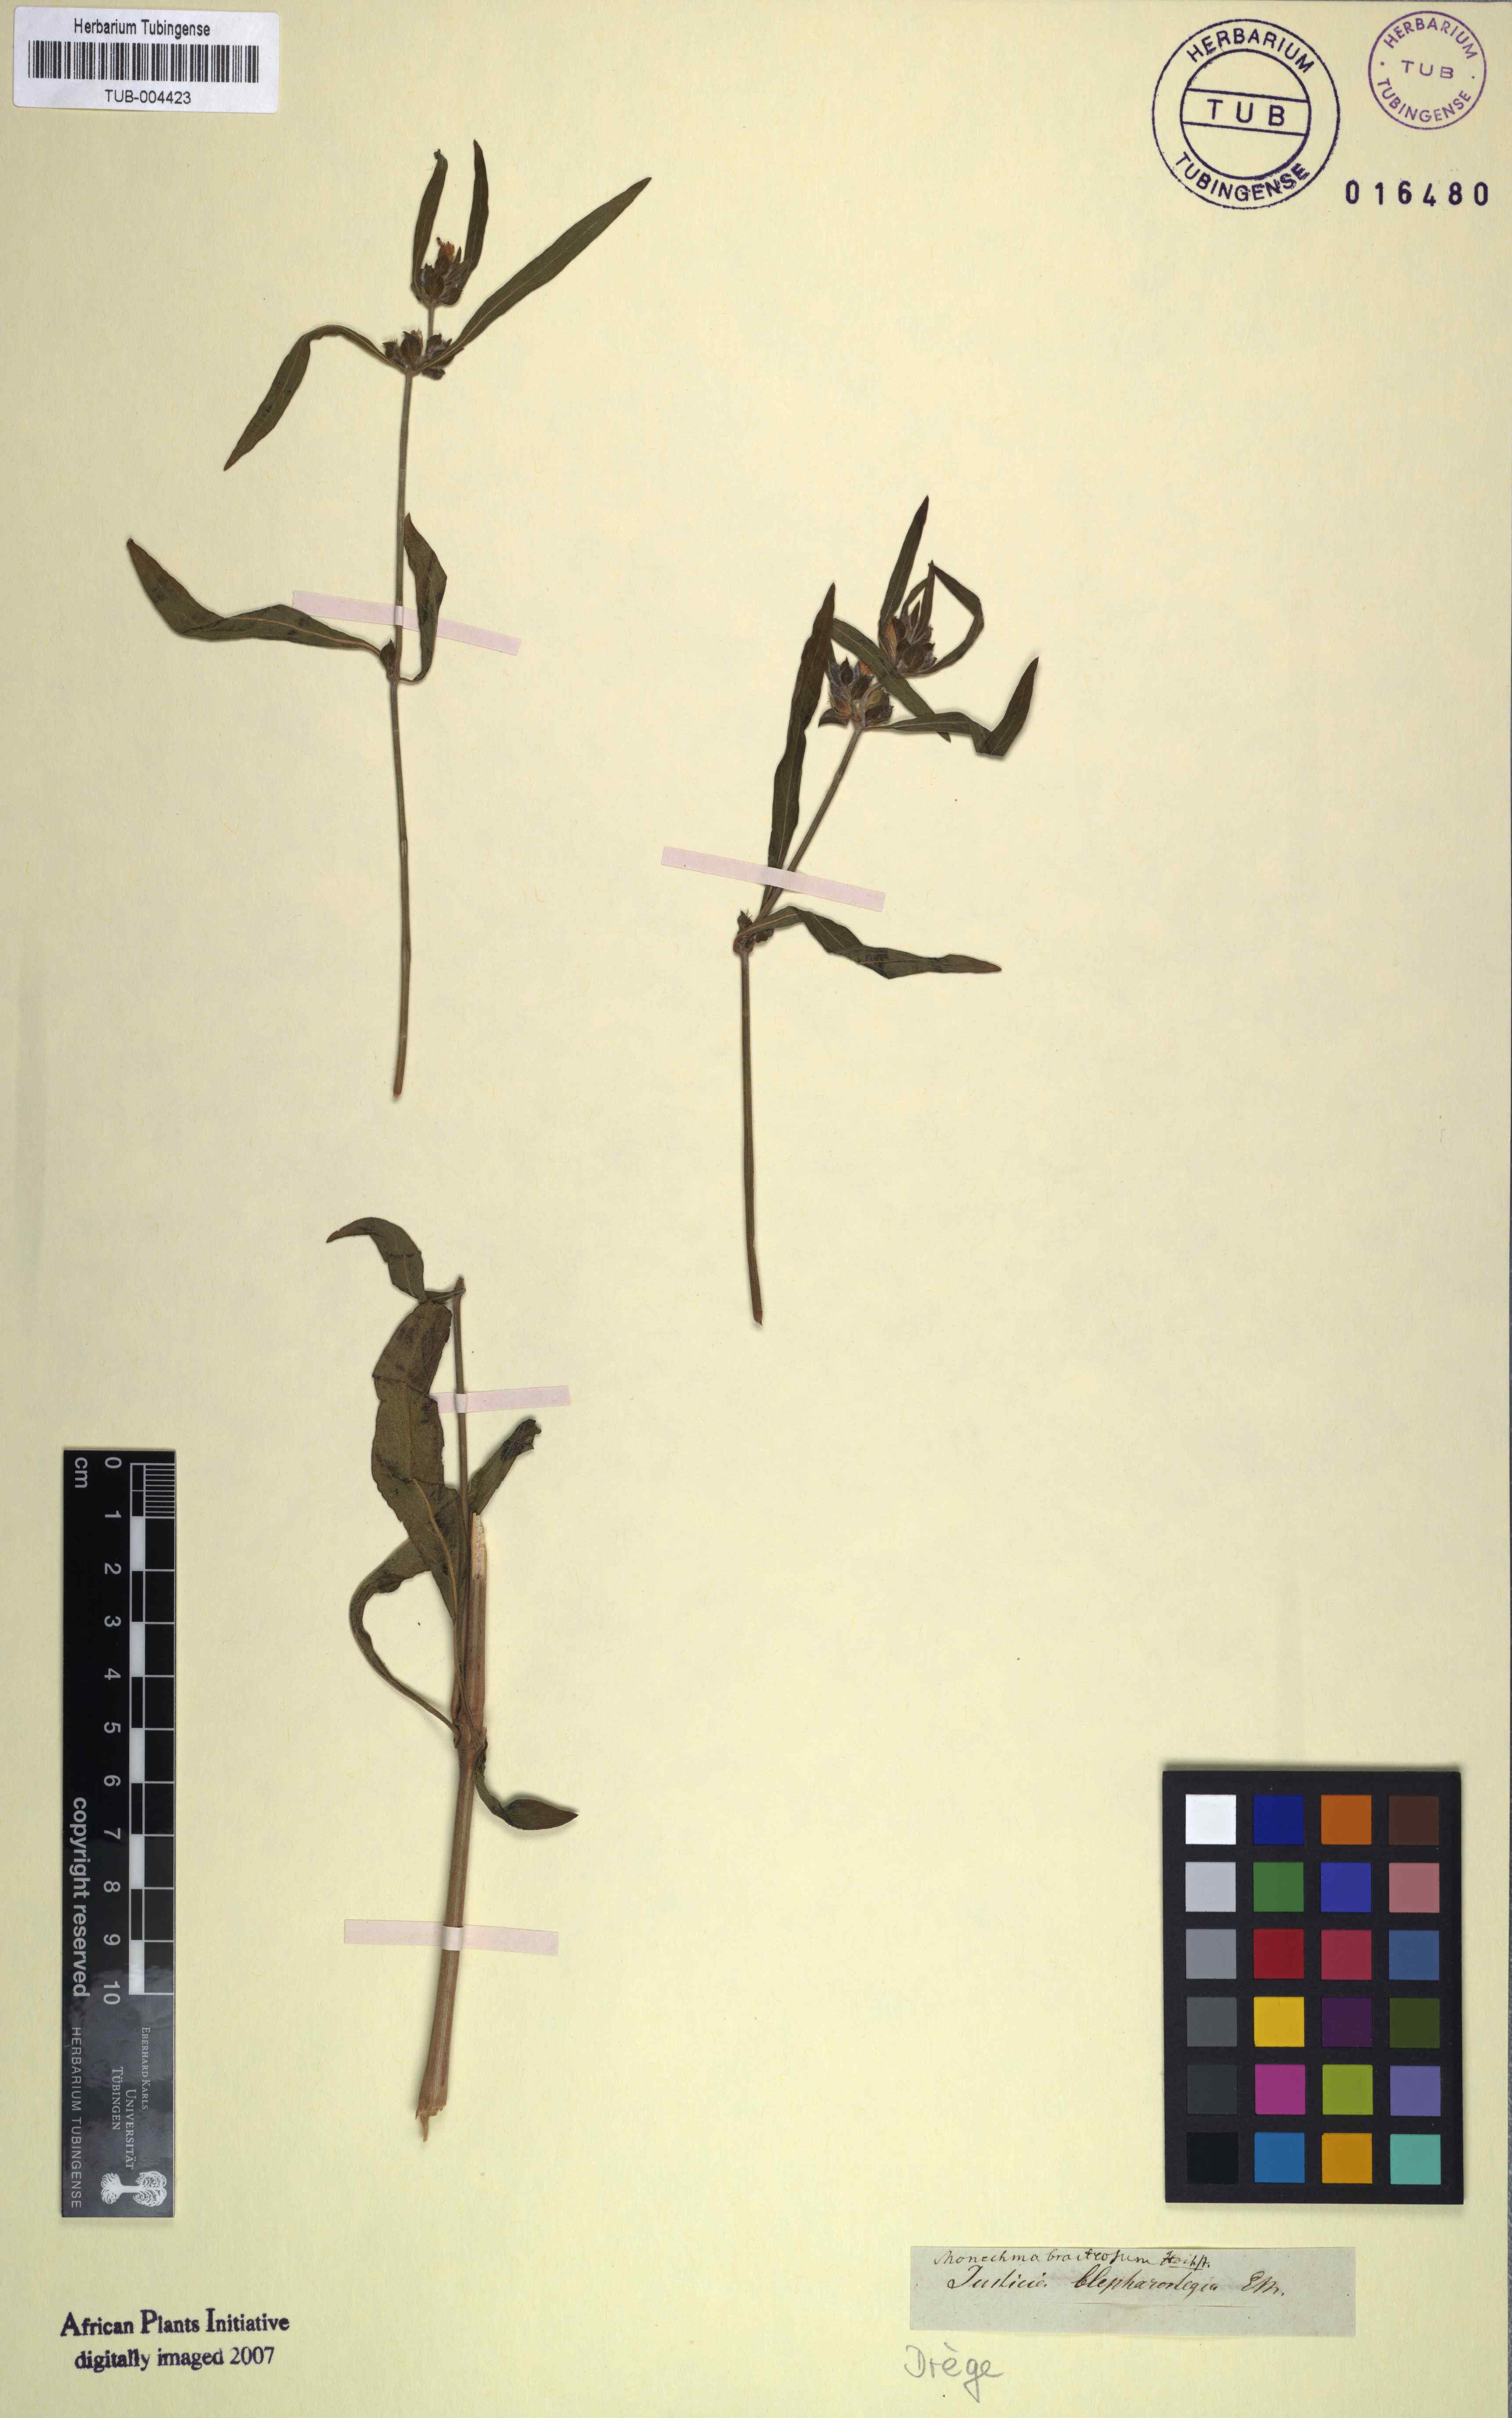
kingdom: Plantae
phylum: Tracheophyta
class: Magnoliopsida
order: Lamiales
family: Acanthaceae
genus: Monechma
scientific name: Monechma debile
